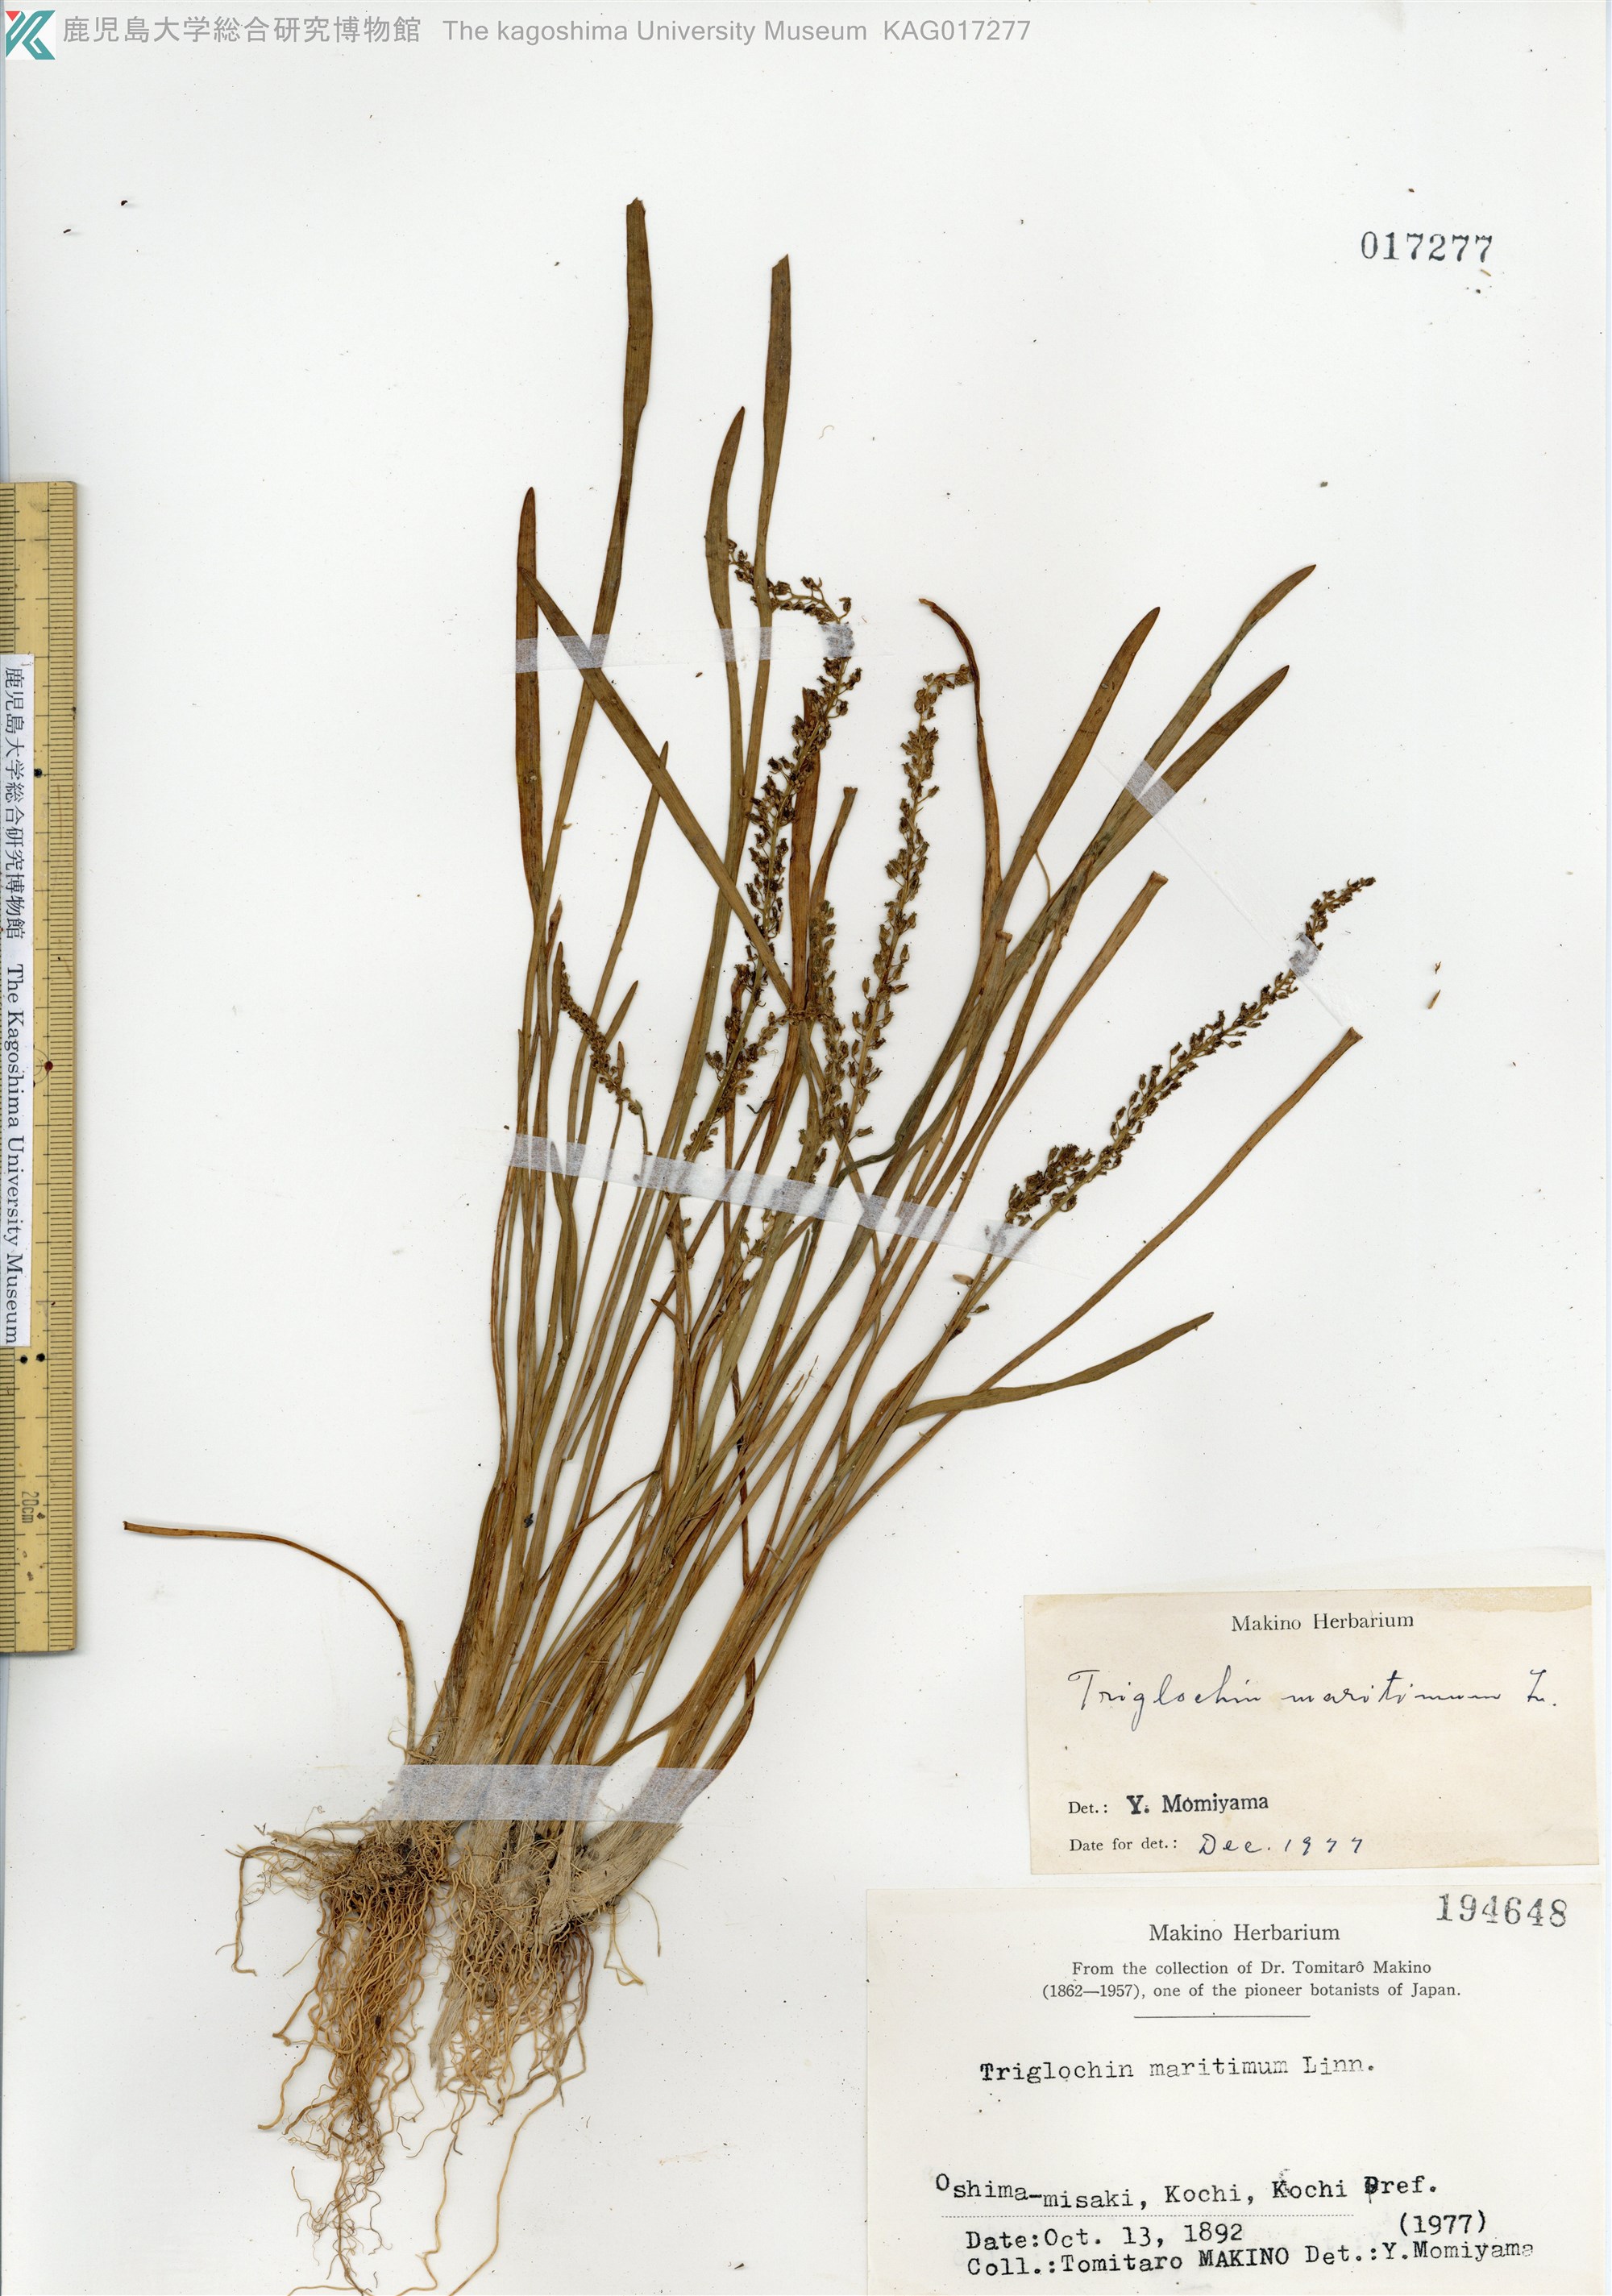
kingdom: Plantae
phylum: Tracheophyta
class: Liliopsida
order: Alismatales
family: Juncaginaceae
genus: Triglochin
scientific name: Triglochin maritima
